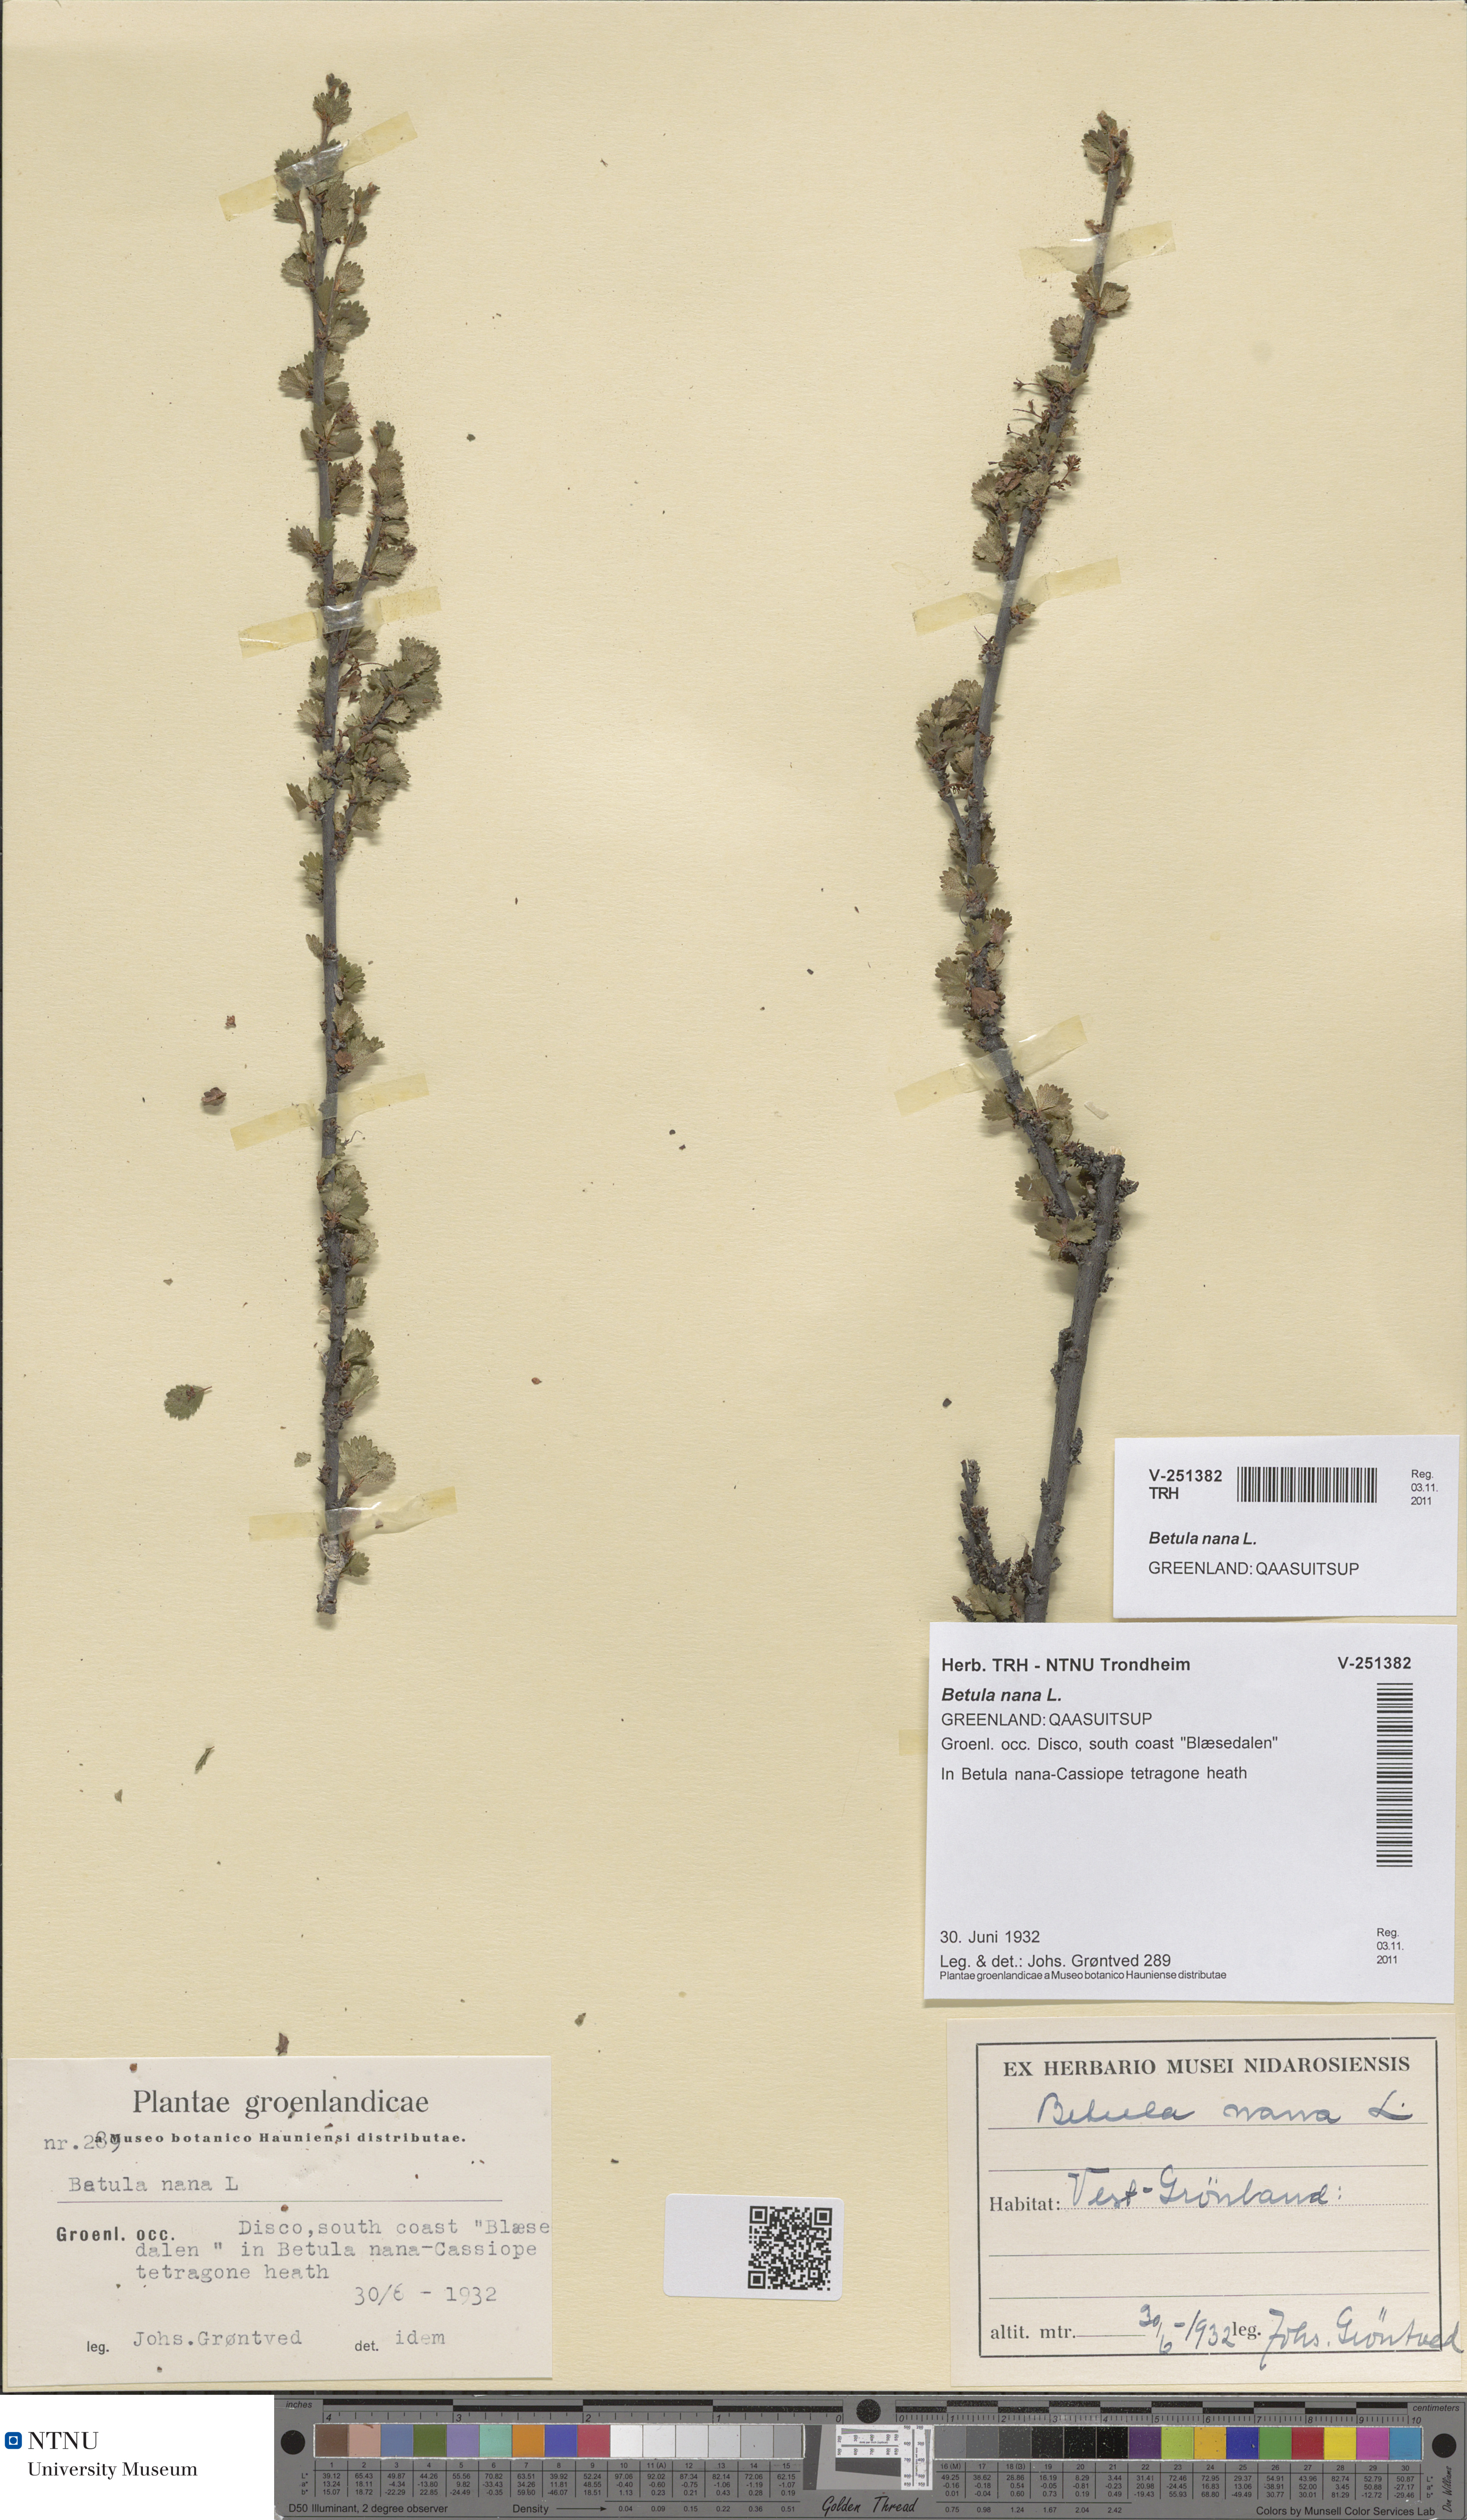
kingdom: Plantae
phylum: Tracheophyta
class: Magnoliopsida
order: Fagales
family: Betulaceae
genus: Betula
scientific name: Betula nana
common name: Arctic dwarf birch
